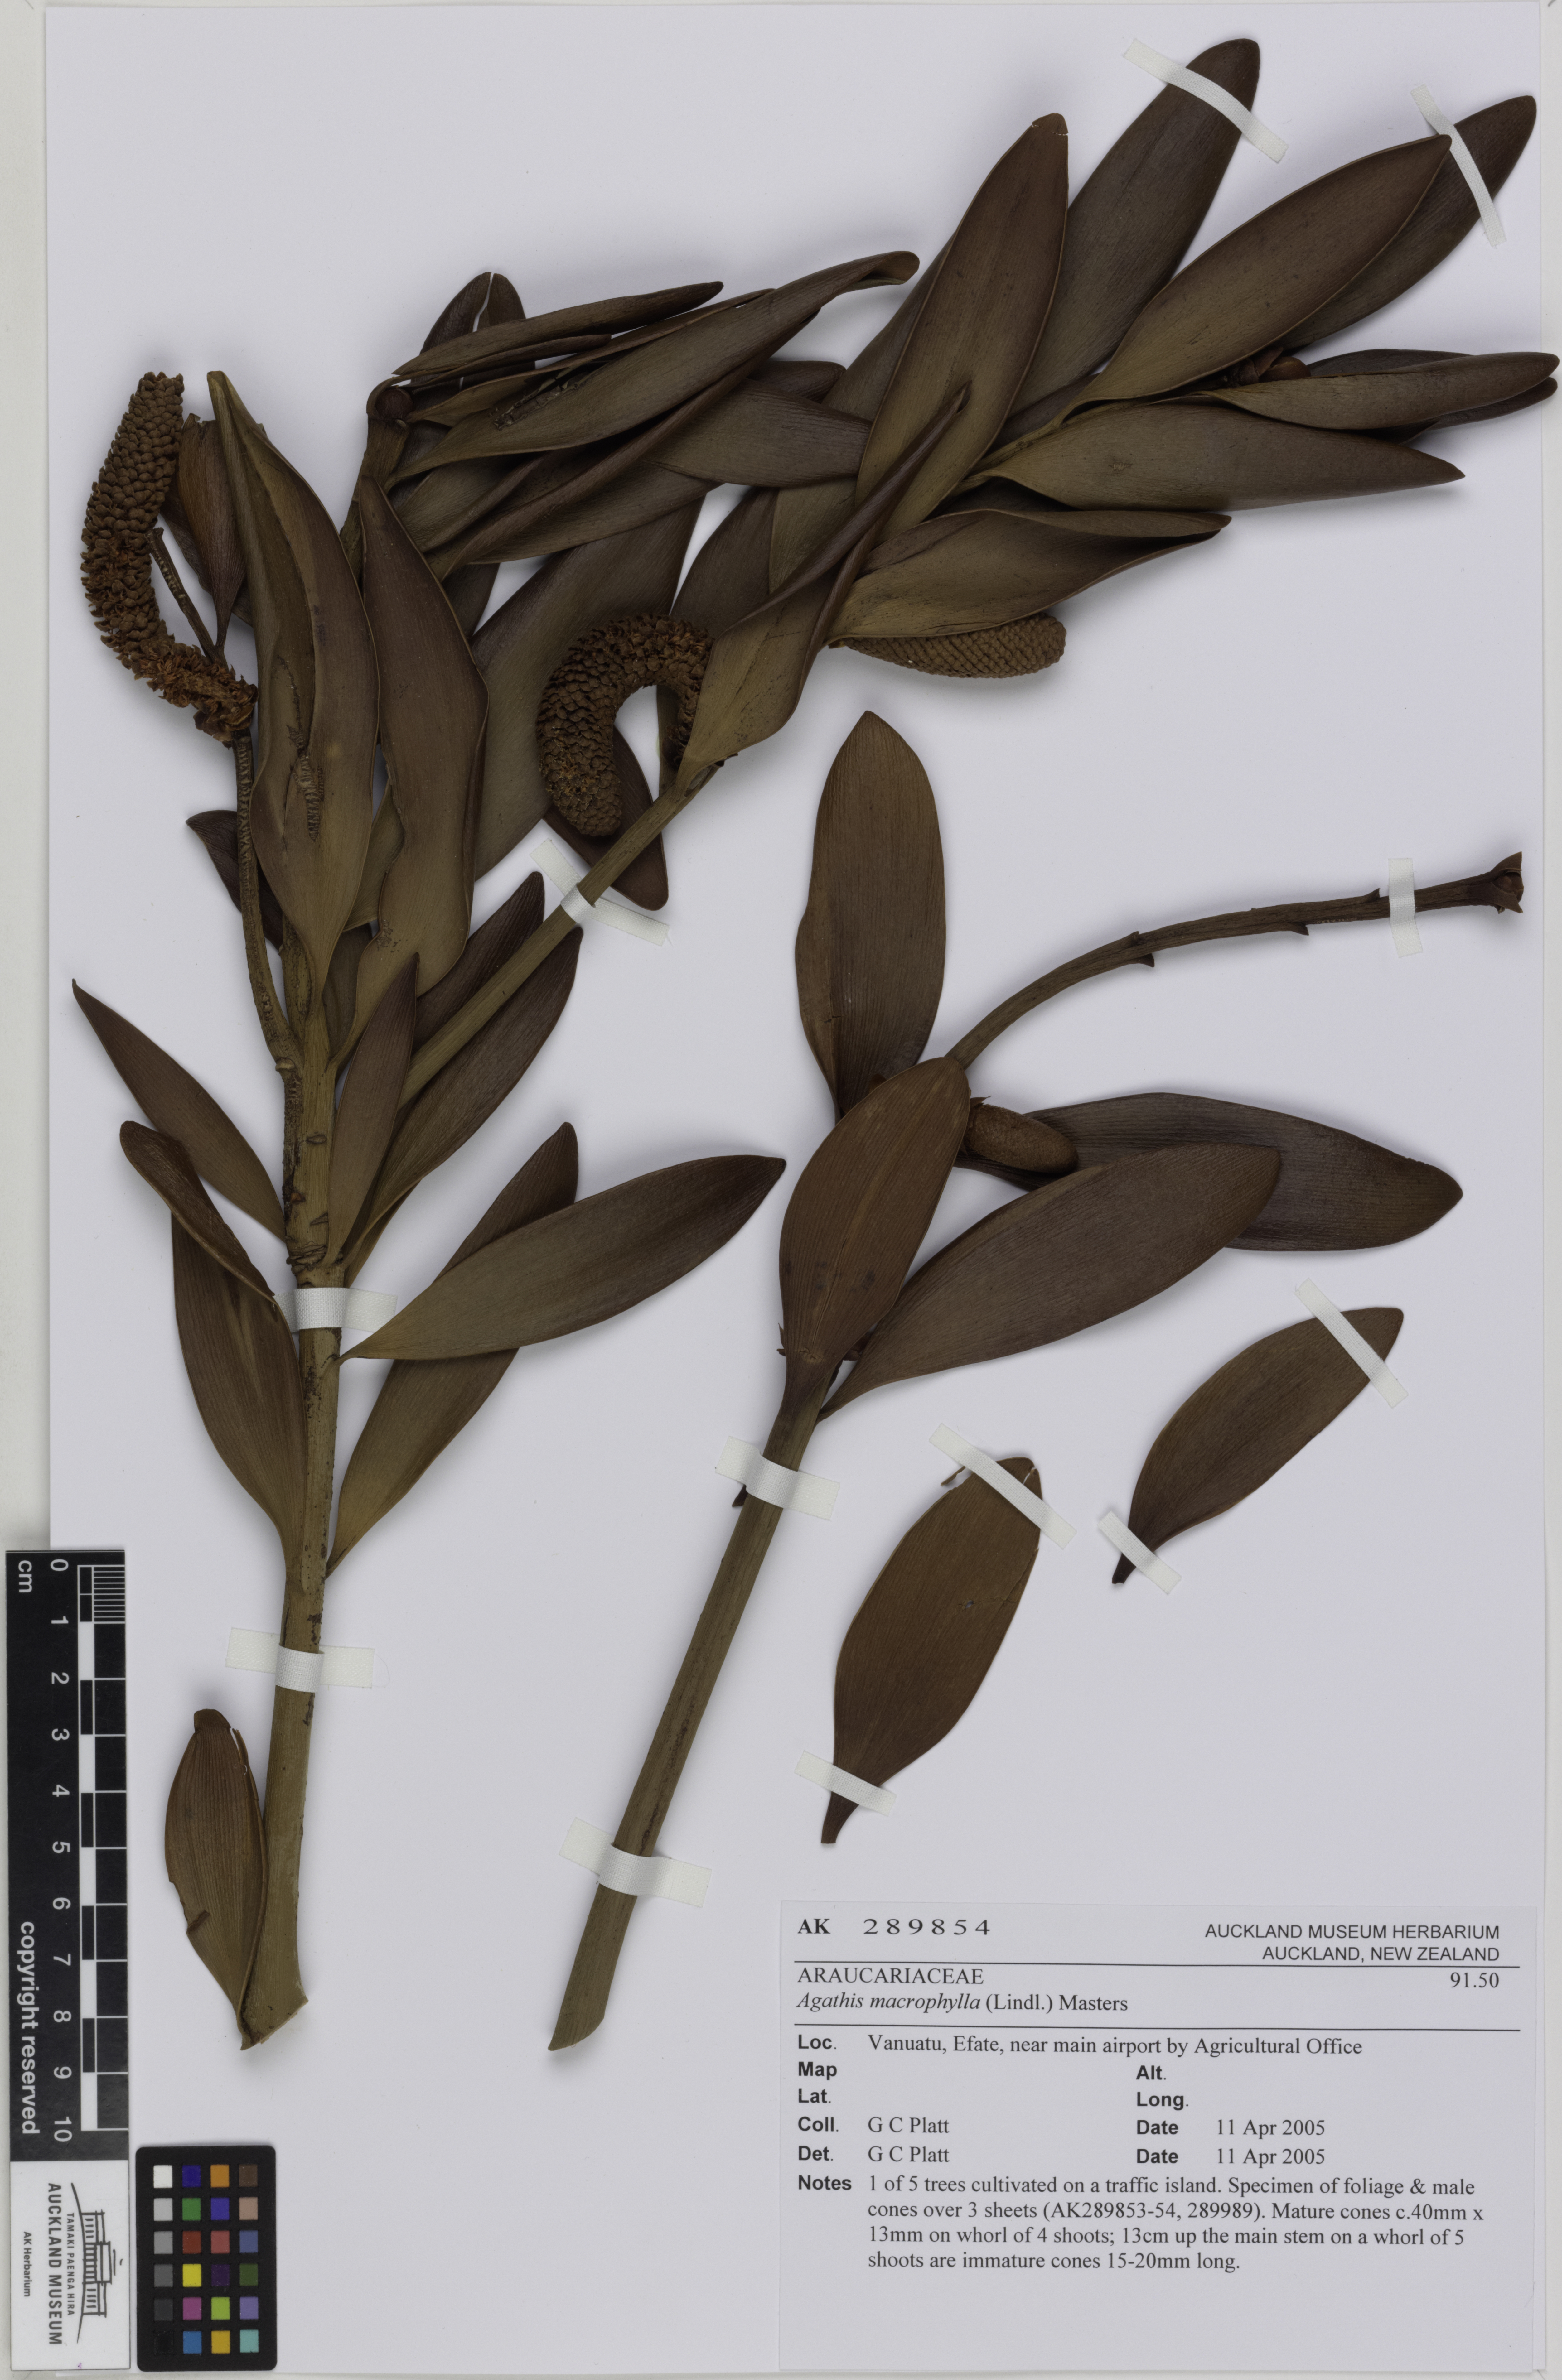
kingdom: Plantae
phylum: Tracheophyta
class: Pinopsida
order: Pinales
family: Araucariaceae
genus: Agathis
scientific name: Agathis macrophylla
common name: Fijian kauri pine
